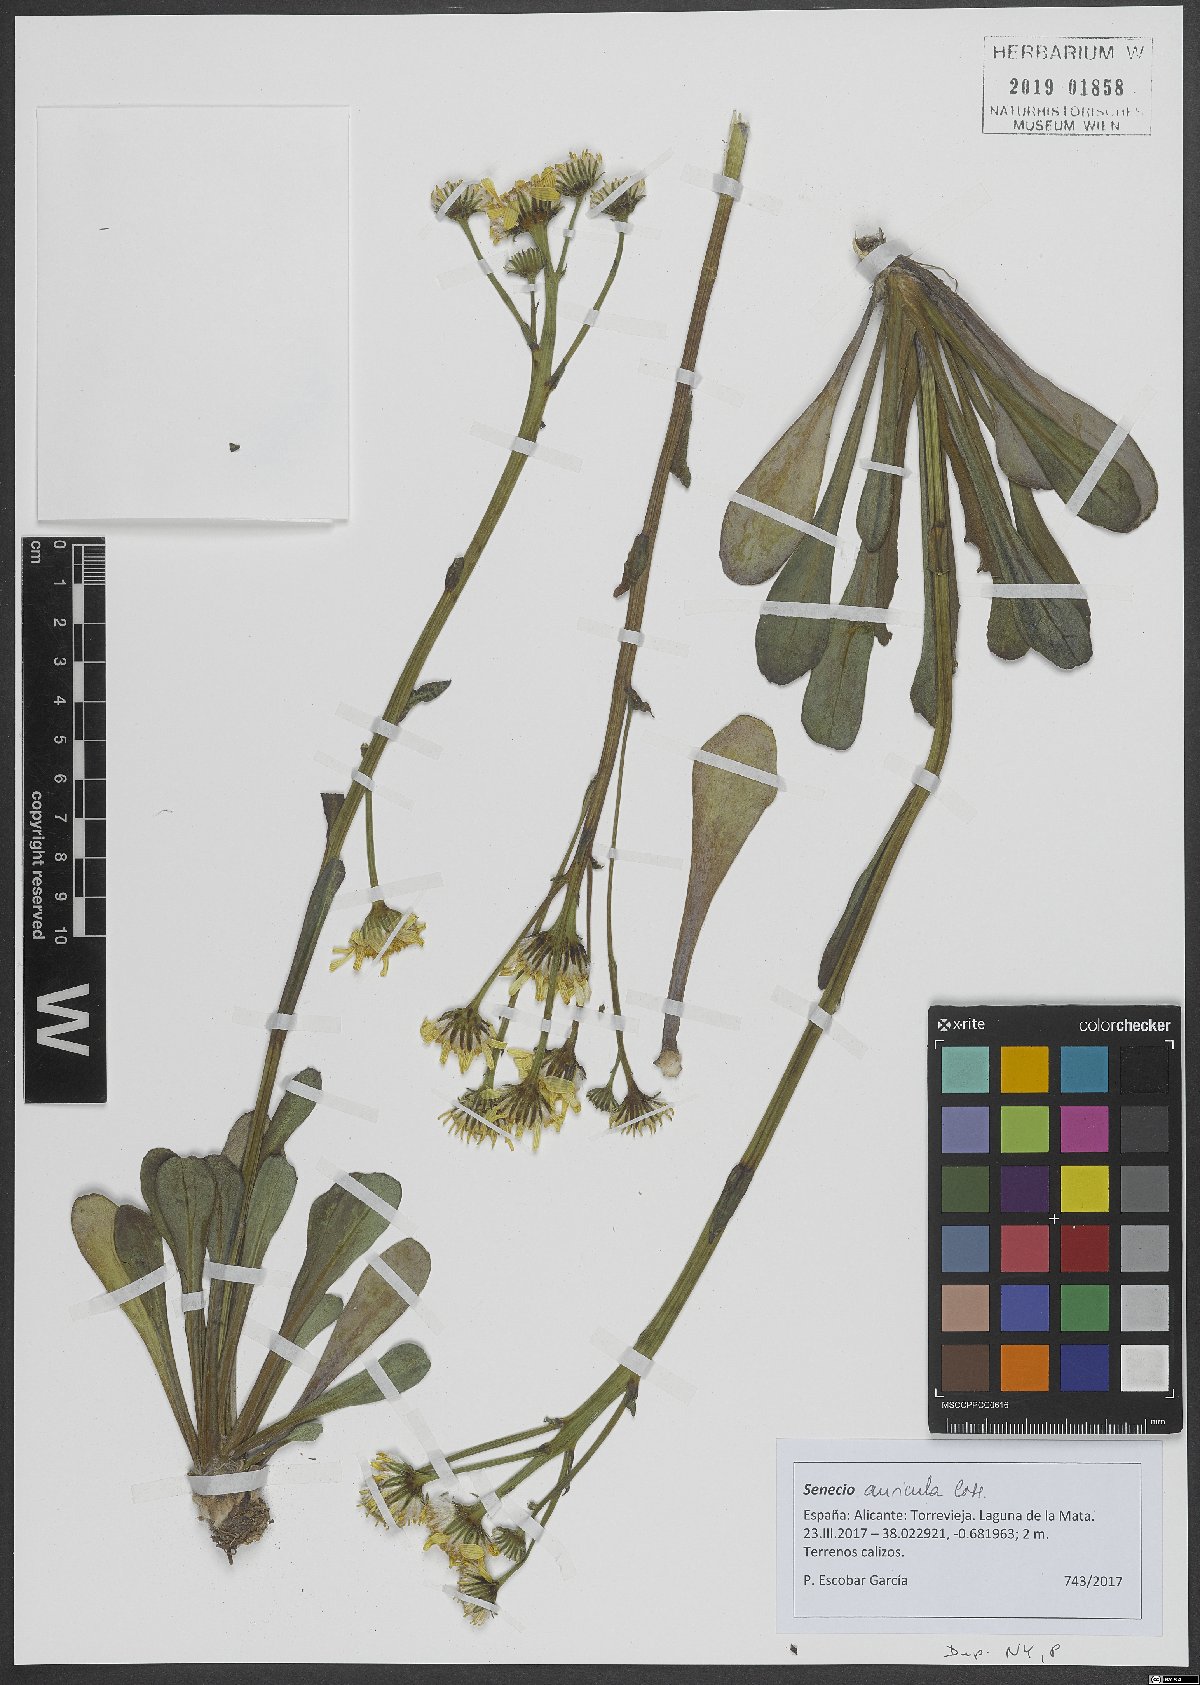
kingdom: Plantae
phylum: Tracheophyta
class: Magnoliopsida
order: Asterales
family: Asteraceae
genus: Senecio
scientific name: Senecio auricula
